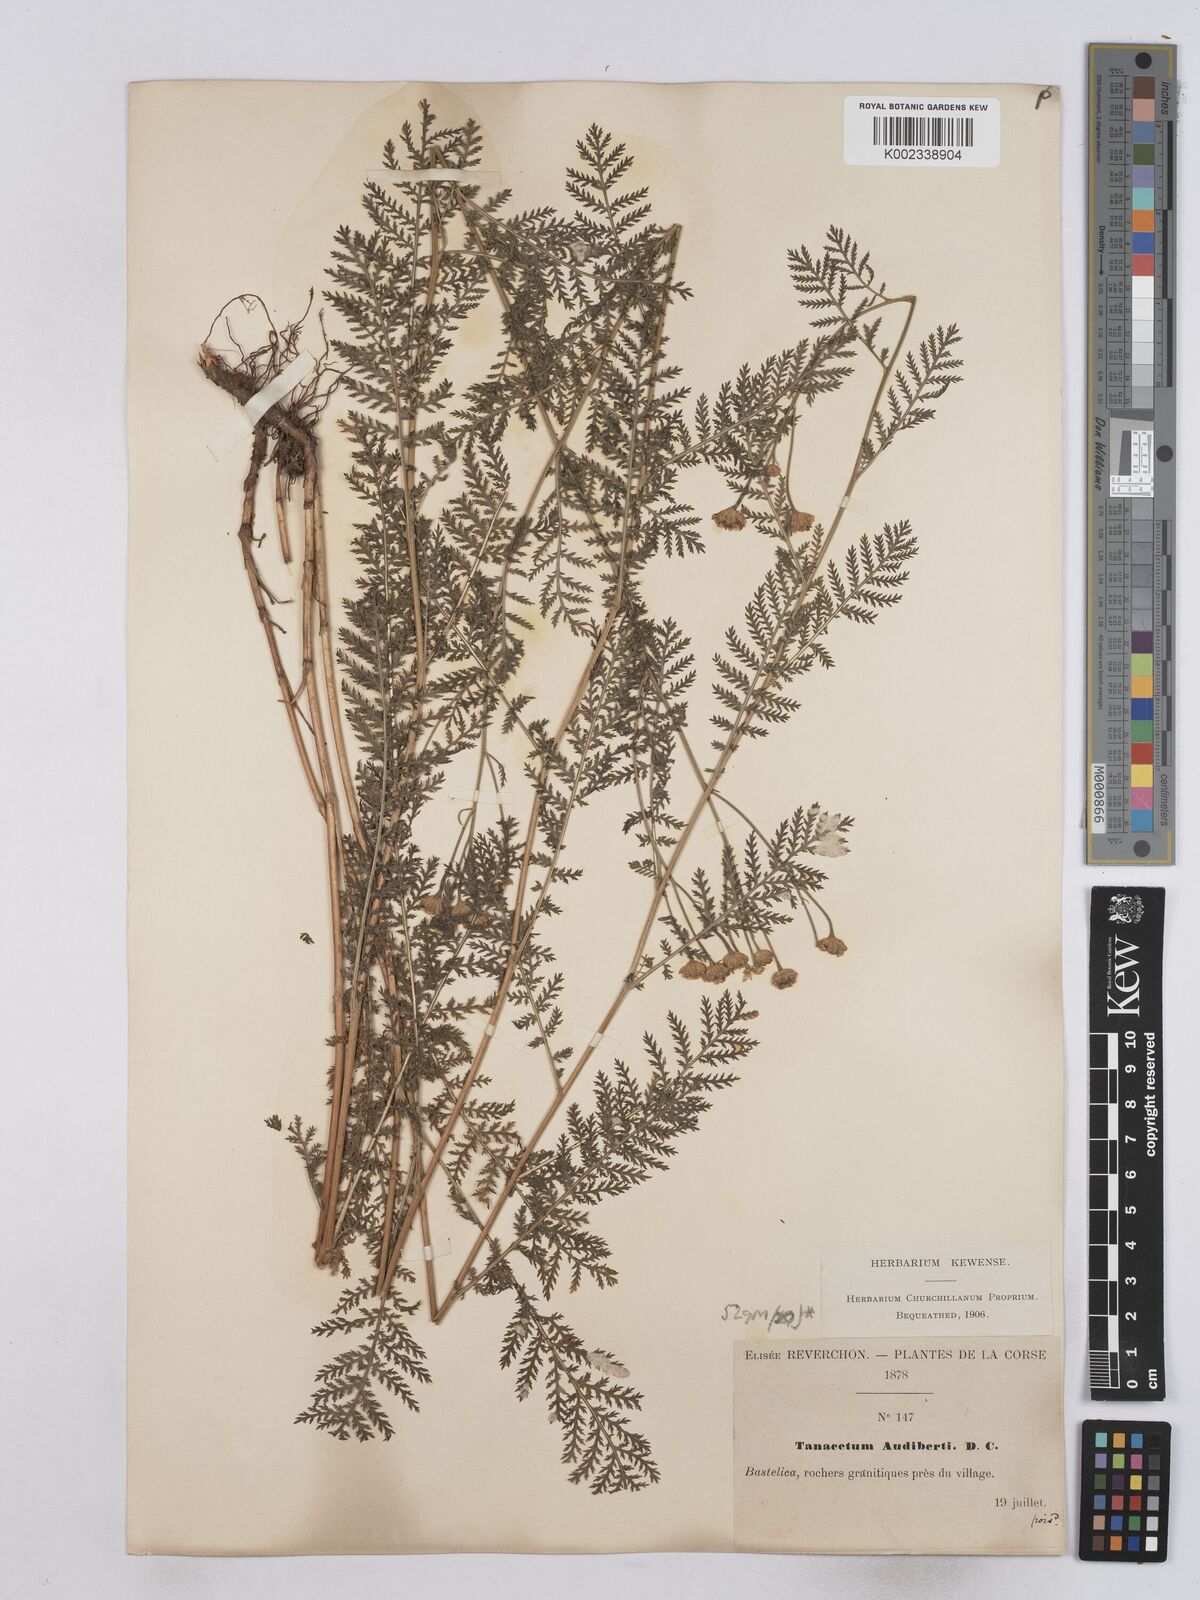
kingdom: Plantae
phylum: Tracheophyta
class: Magnoliopsida
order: Asterales
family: Asteraceae
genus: Tanacetum
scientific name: Tanacetum audibertii
